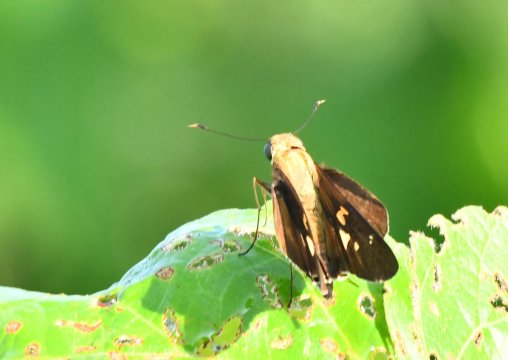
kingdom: Animalia
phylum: Arthropoda
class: Insecta
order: Lepidoptera
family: Hesperiidae
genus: Calpodes
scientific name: Calpodes ethlius
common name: Brazilian Skipper
